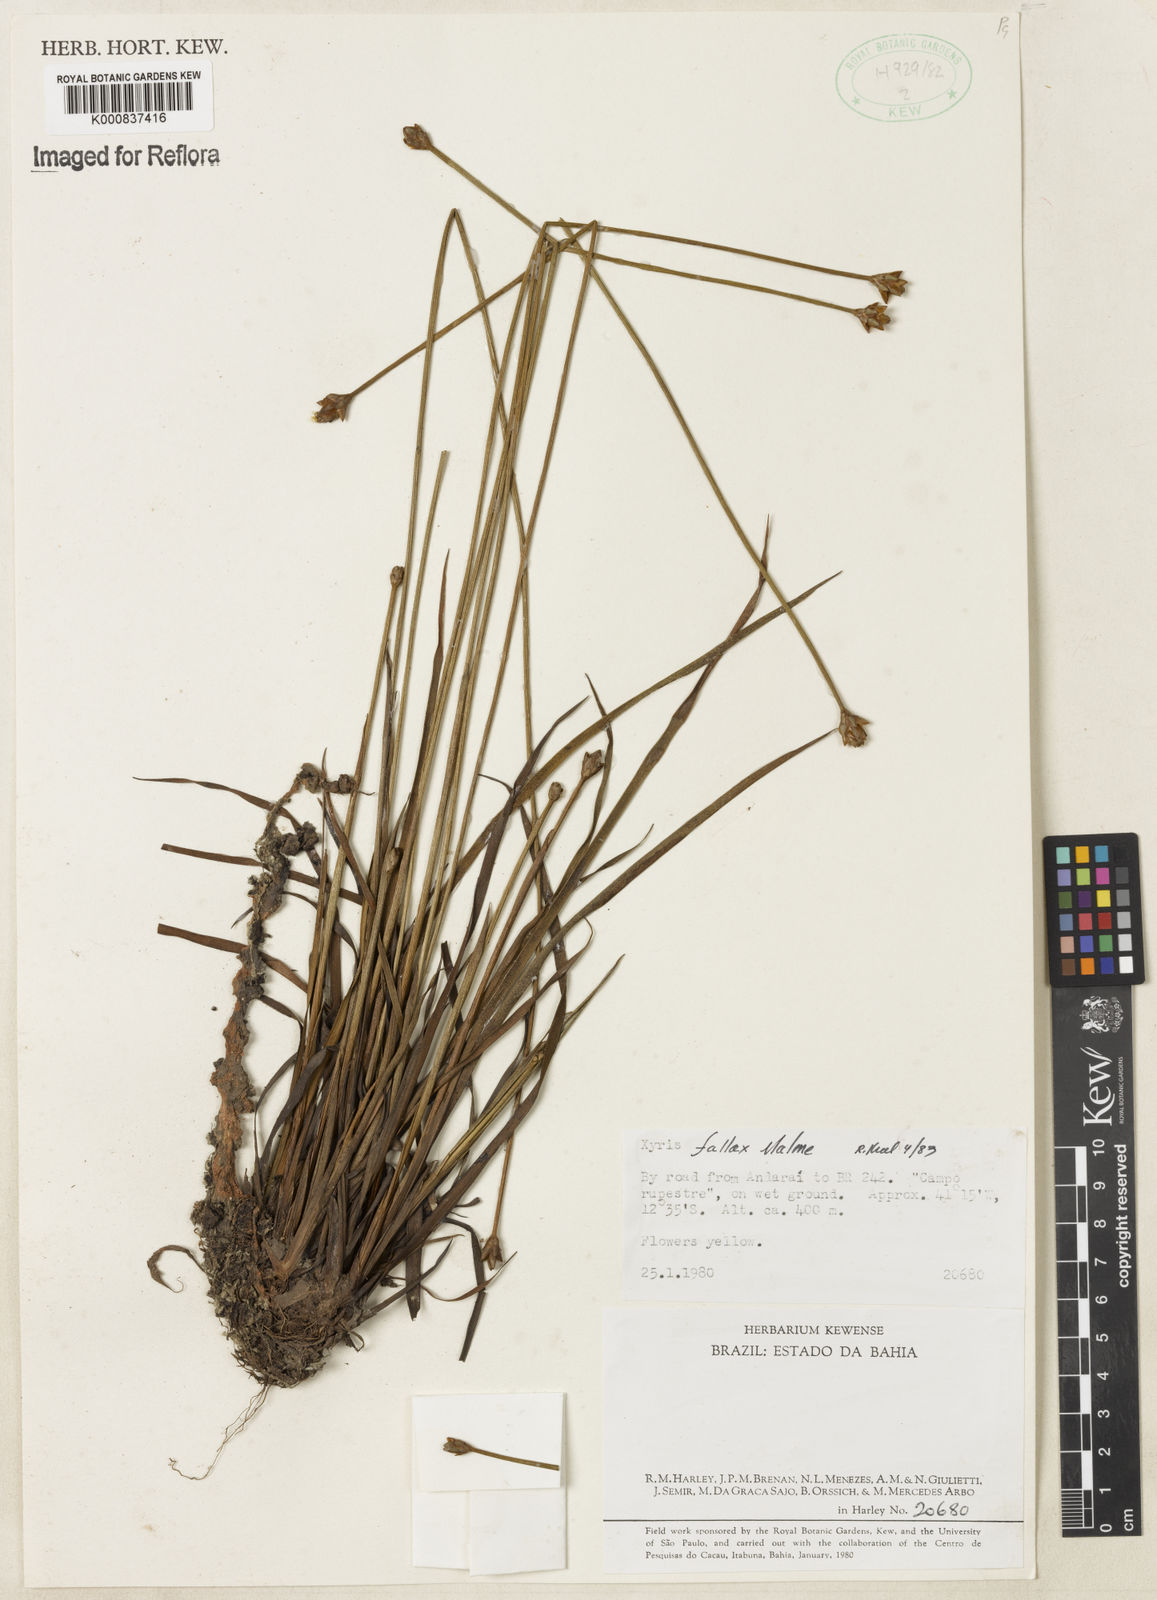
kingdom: Plantae
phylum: Tracheophyta
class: Liliopsida
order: Poales
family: Xyridaceae
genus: Xyris
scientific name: Xyris fallax
